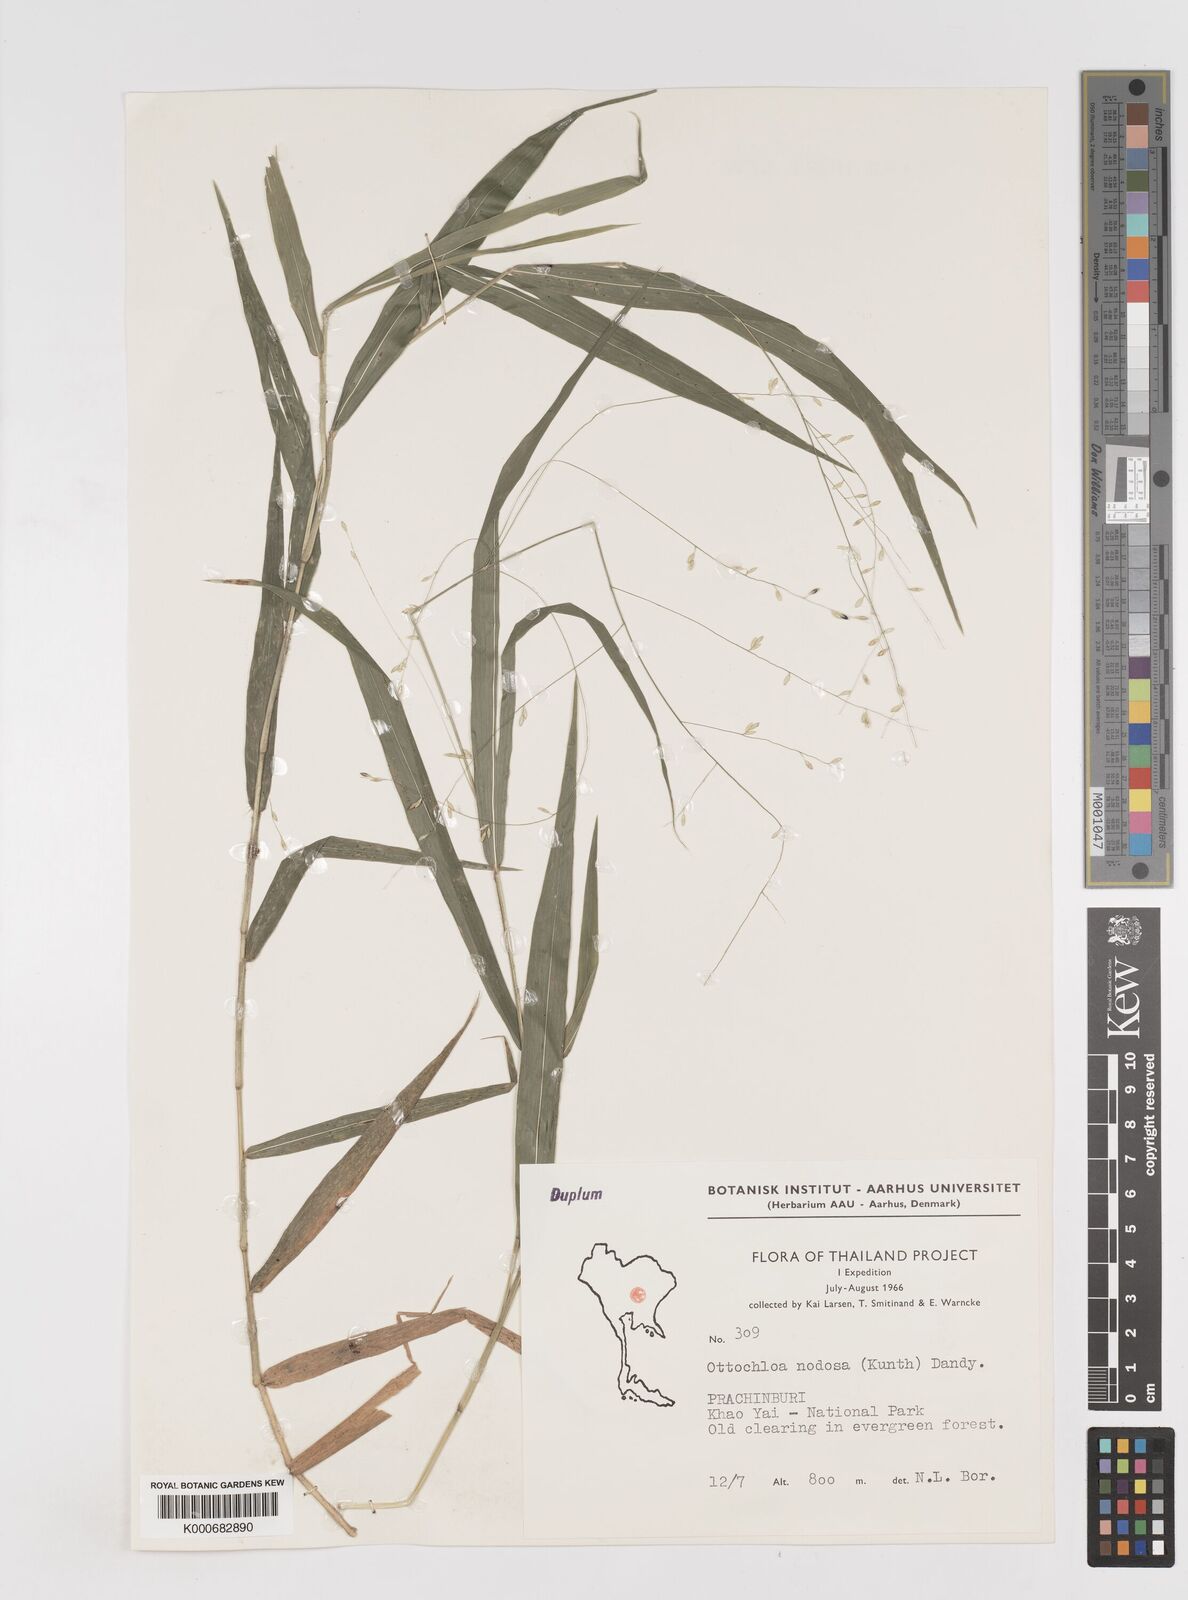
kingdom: Plantae
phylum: Tracheophyta
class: Liliopsida
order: Poales
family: Poaceae
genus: Ottochloa
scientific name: Ottochloa nodosa
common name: Slender-panic grass
